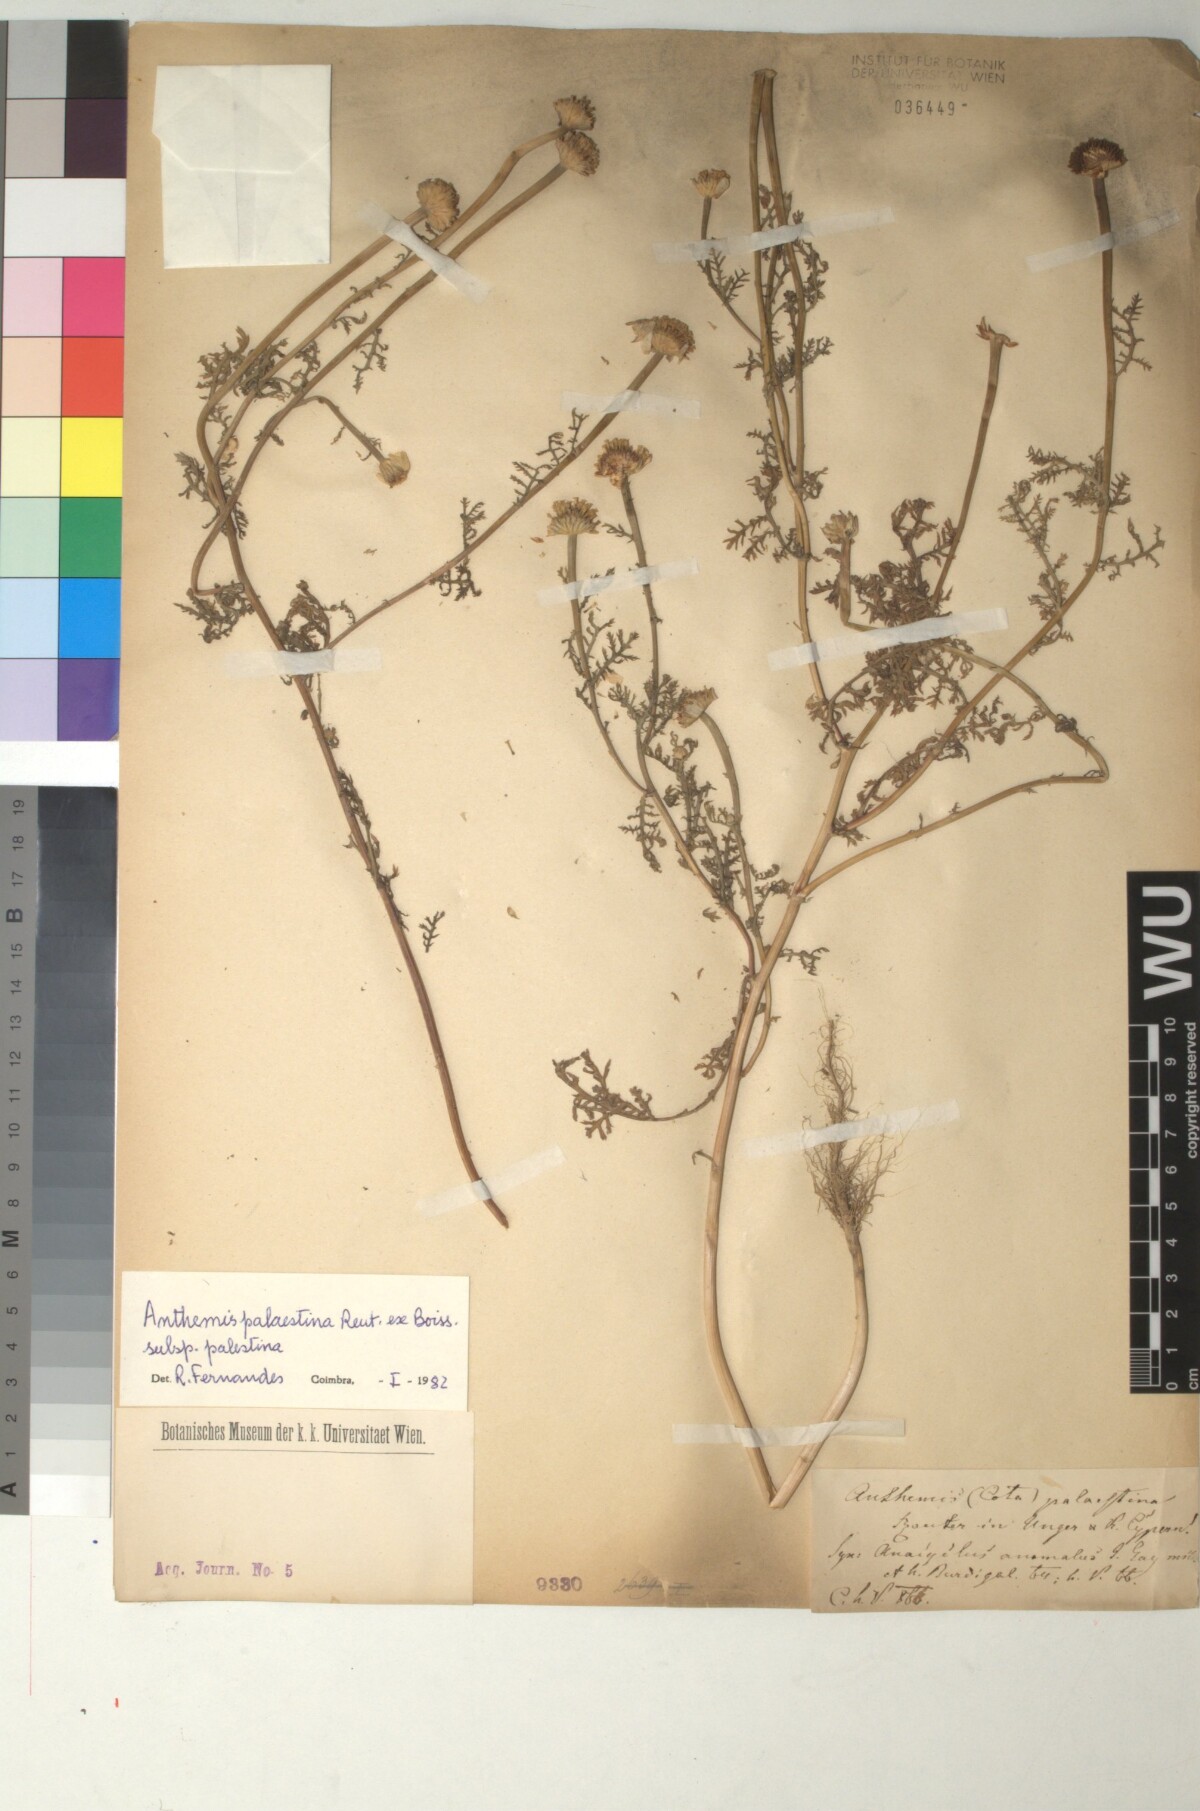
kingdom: Plantae
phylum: Tracheophyta
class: Magnoliopsida
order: Asterales
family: Asteraceae
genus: Cota
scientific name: Cota palaestina
